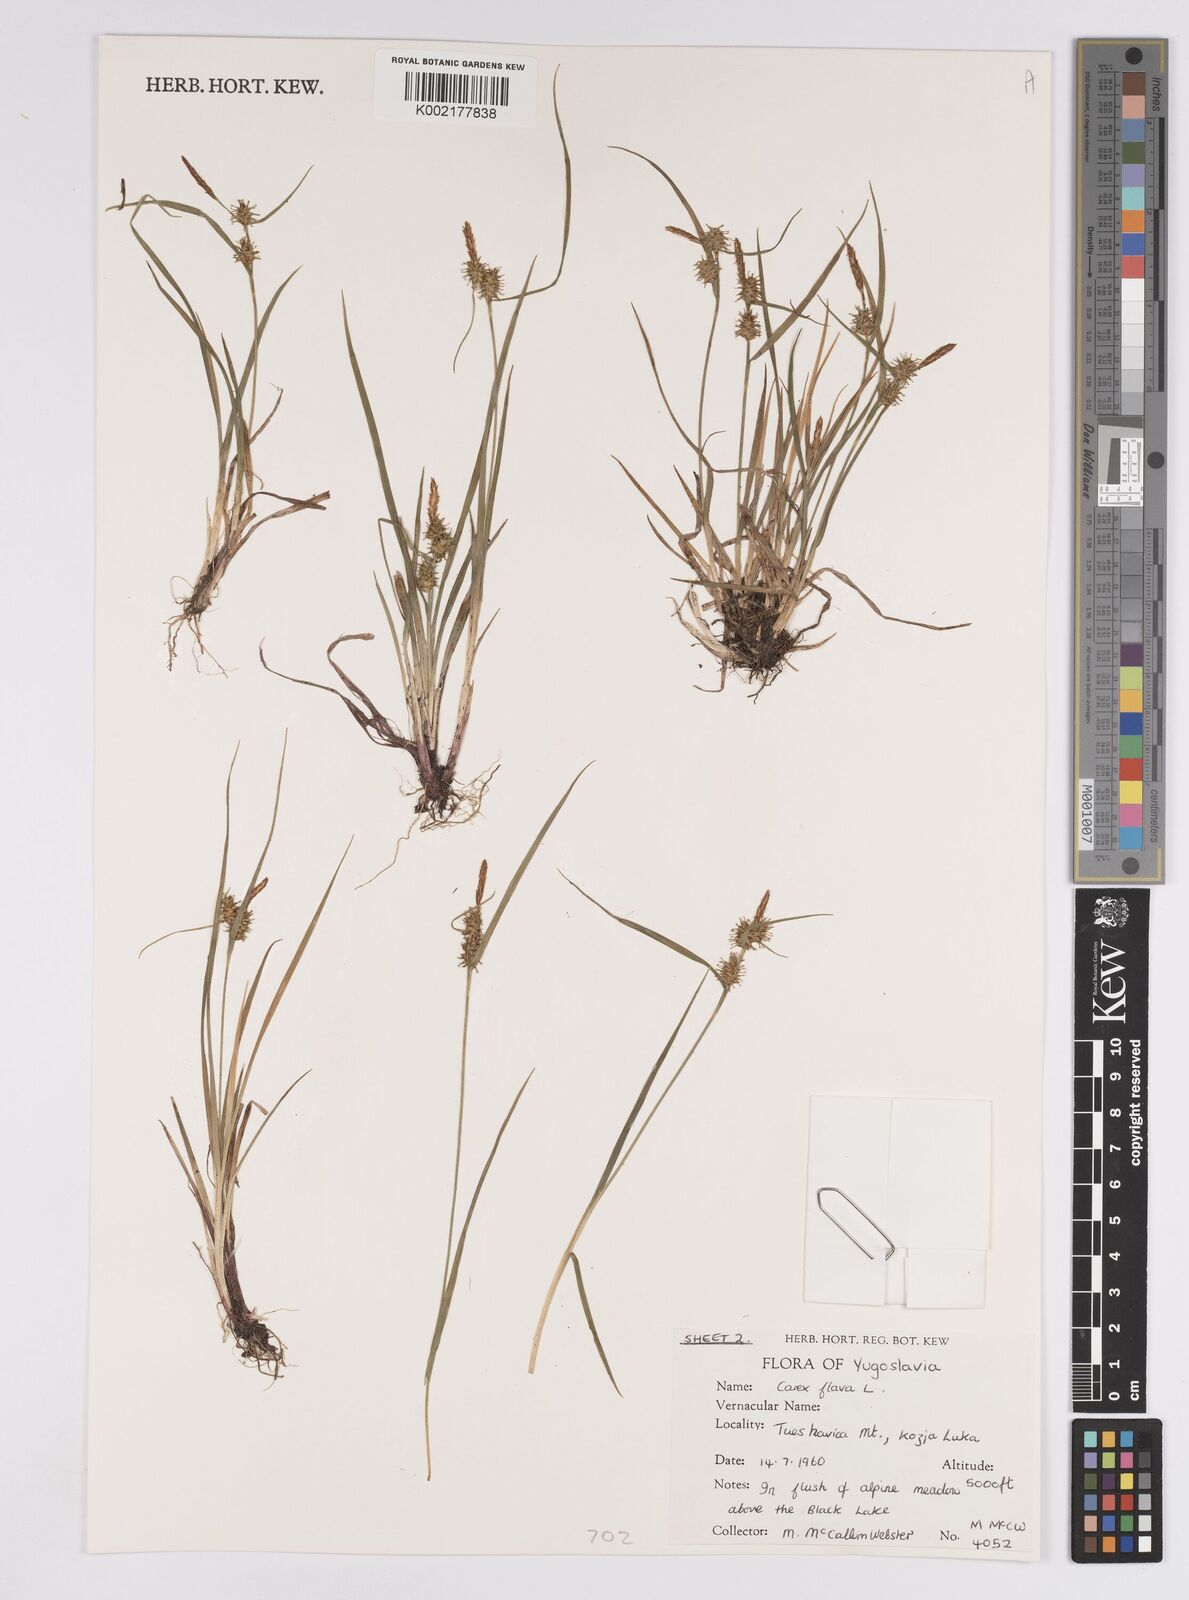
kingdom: Plantae
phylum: Tracheophyta
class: Liliopsida
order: Poales
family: Cyperaceae
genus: Carex
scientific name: Carex flava
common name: Large yellow-sedge
